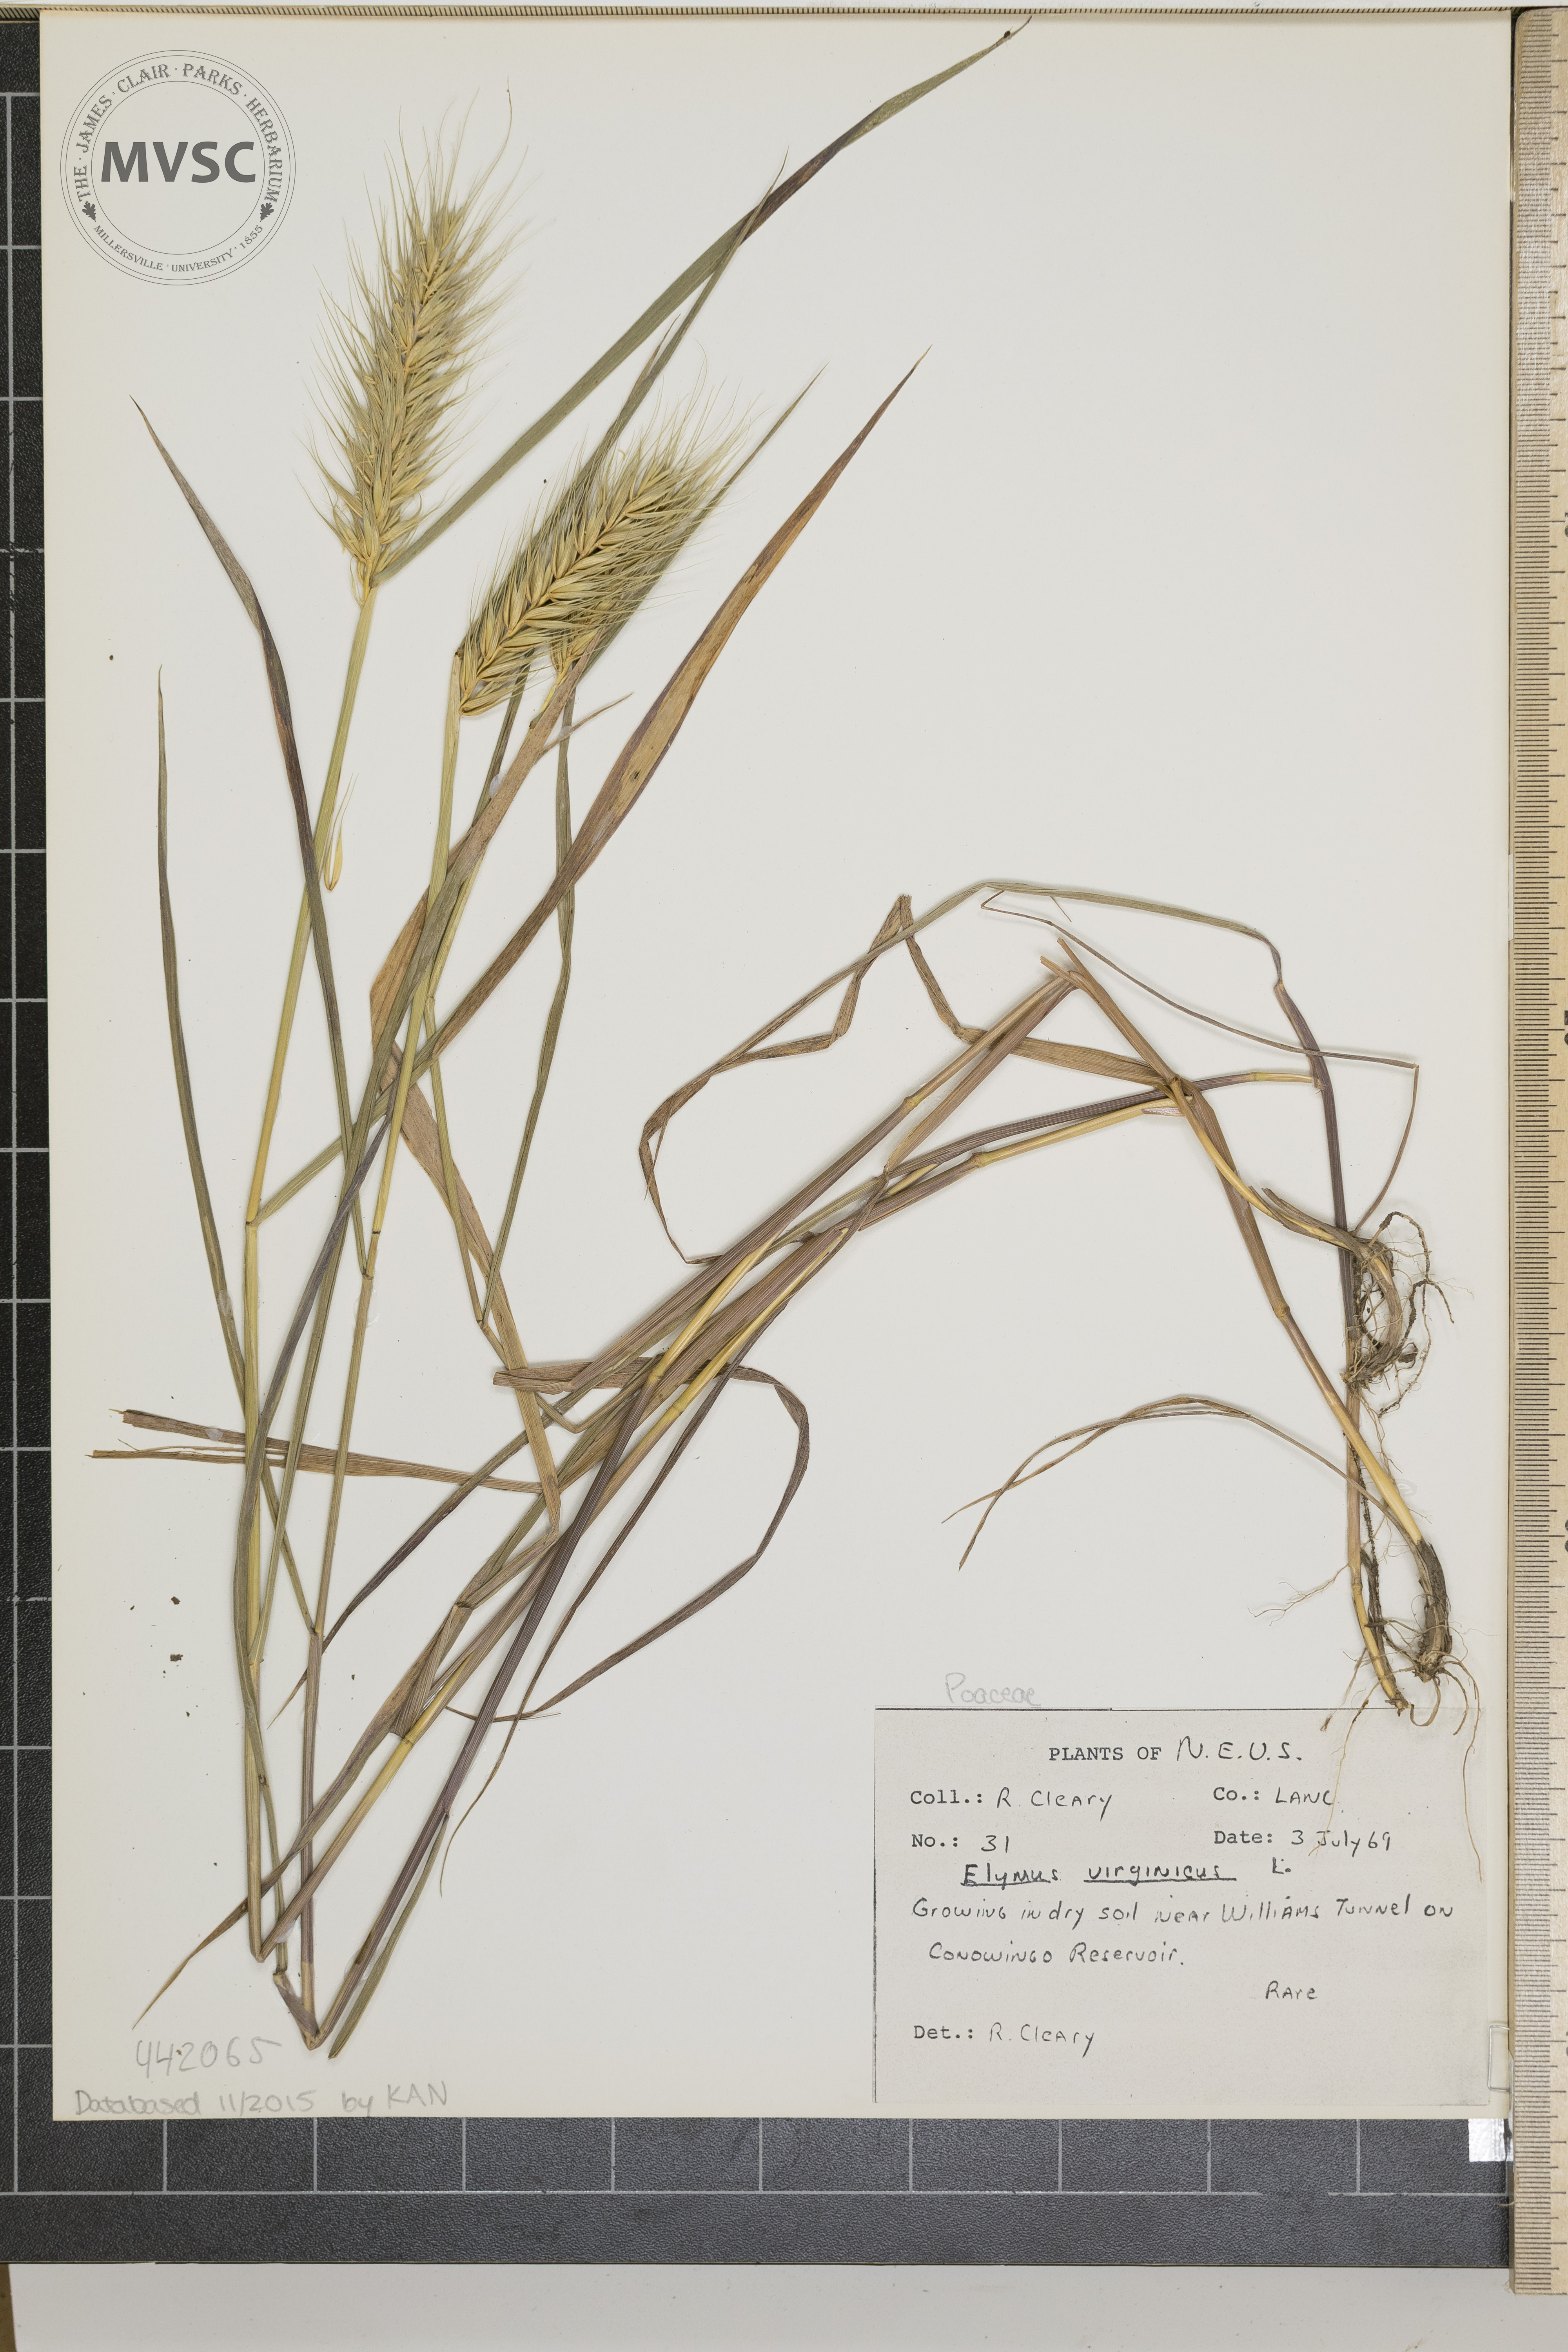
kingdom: Plantae
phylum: Tracheophyta
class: Liliopsida
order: Poales
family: Poaceae
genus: Elymus
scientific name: Elymus virginicus
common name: Common eastern wildrye
